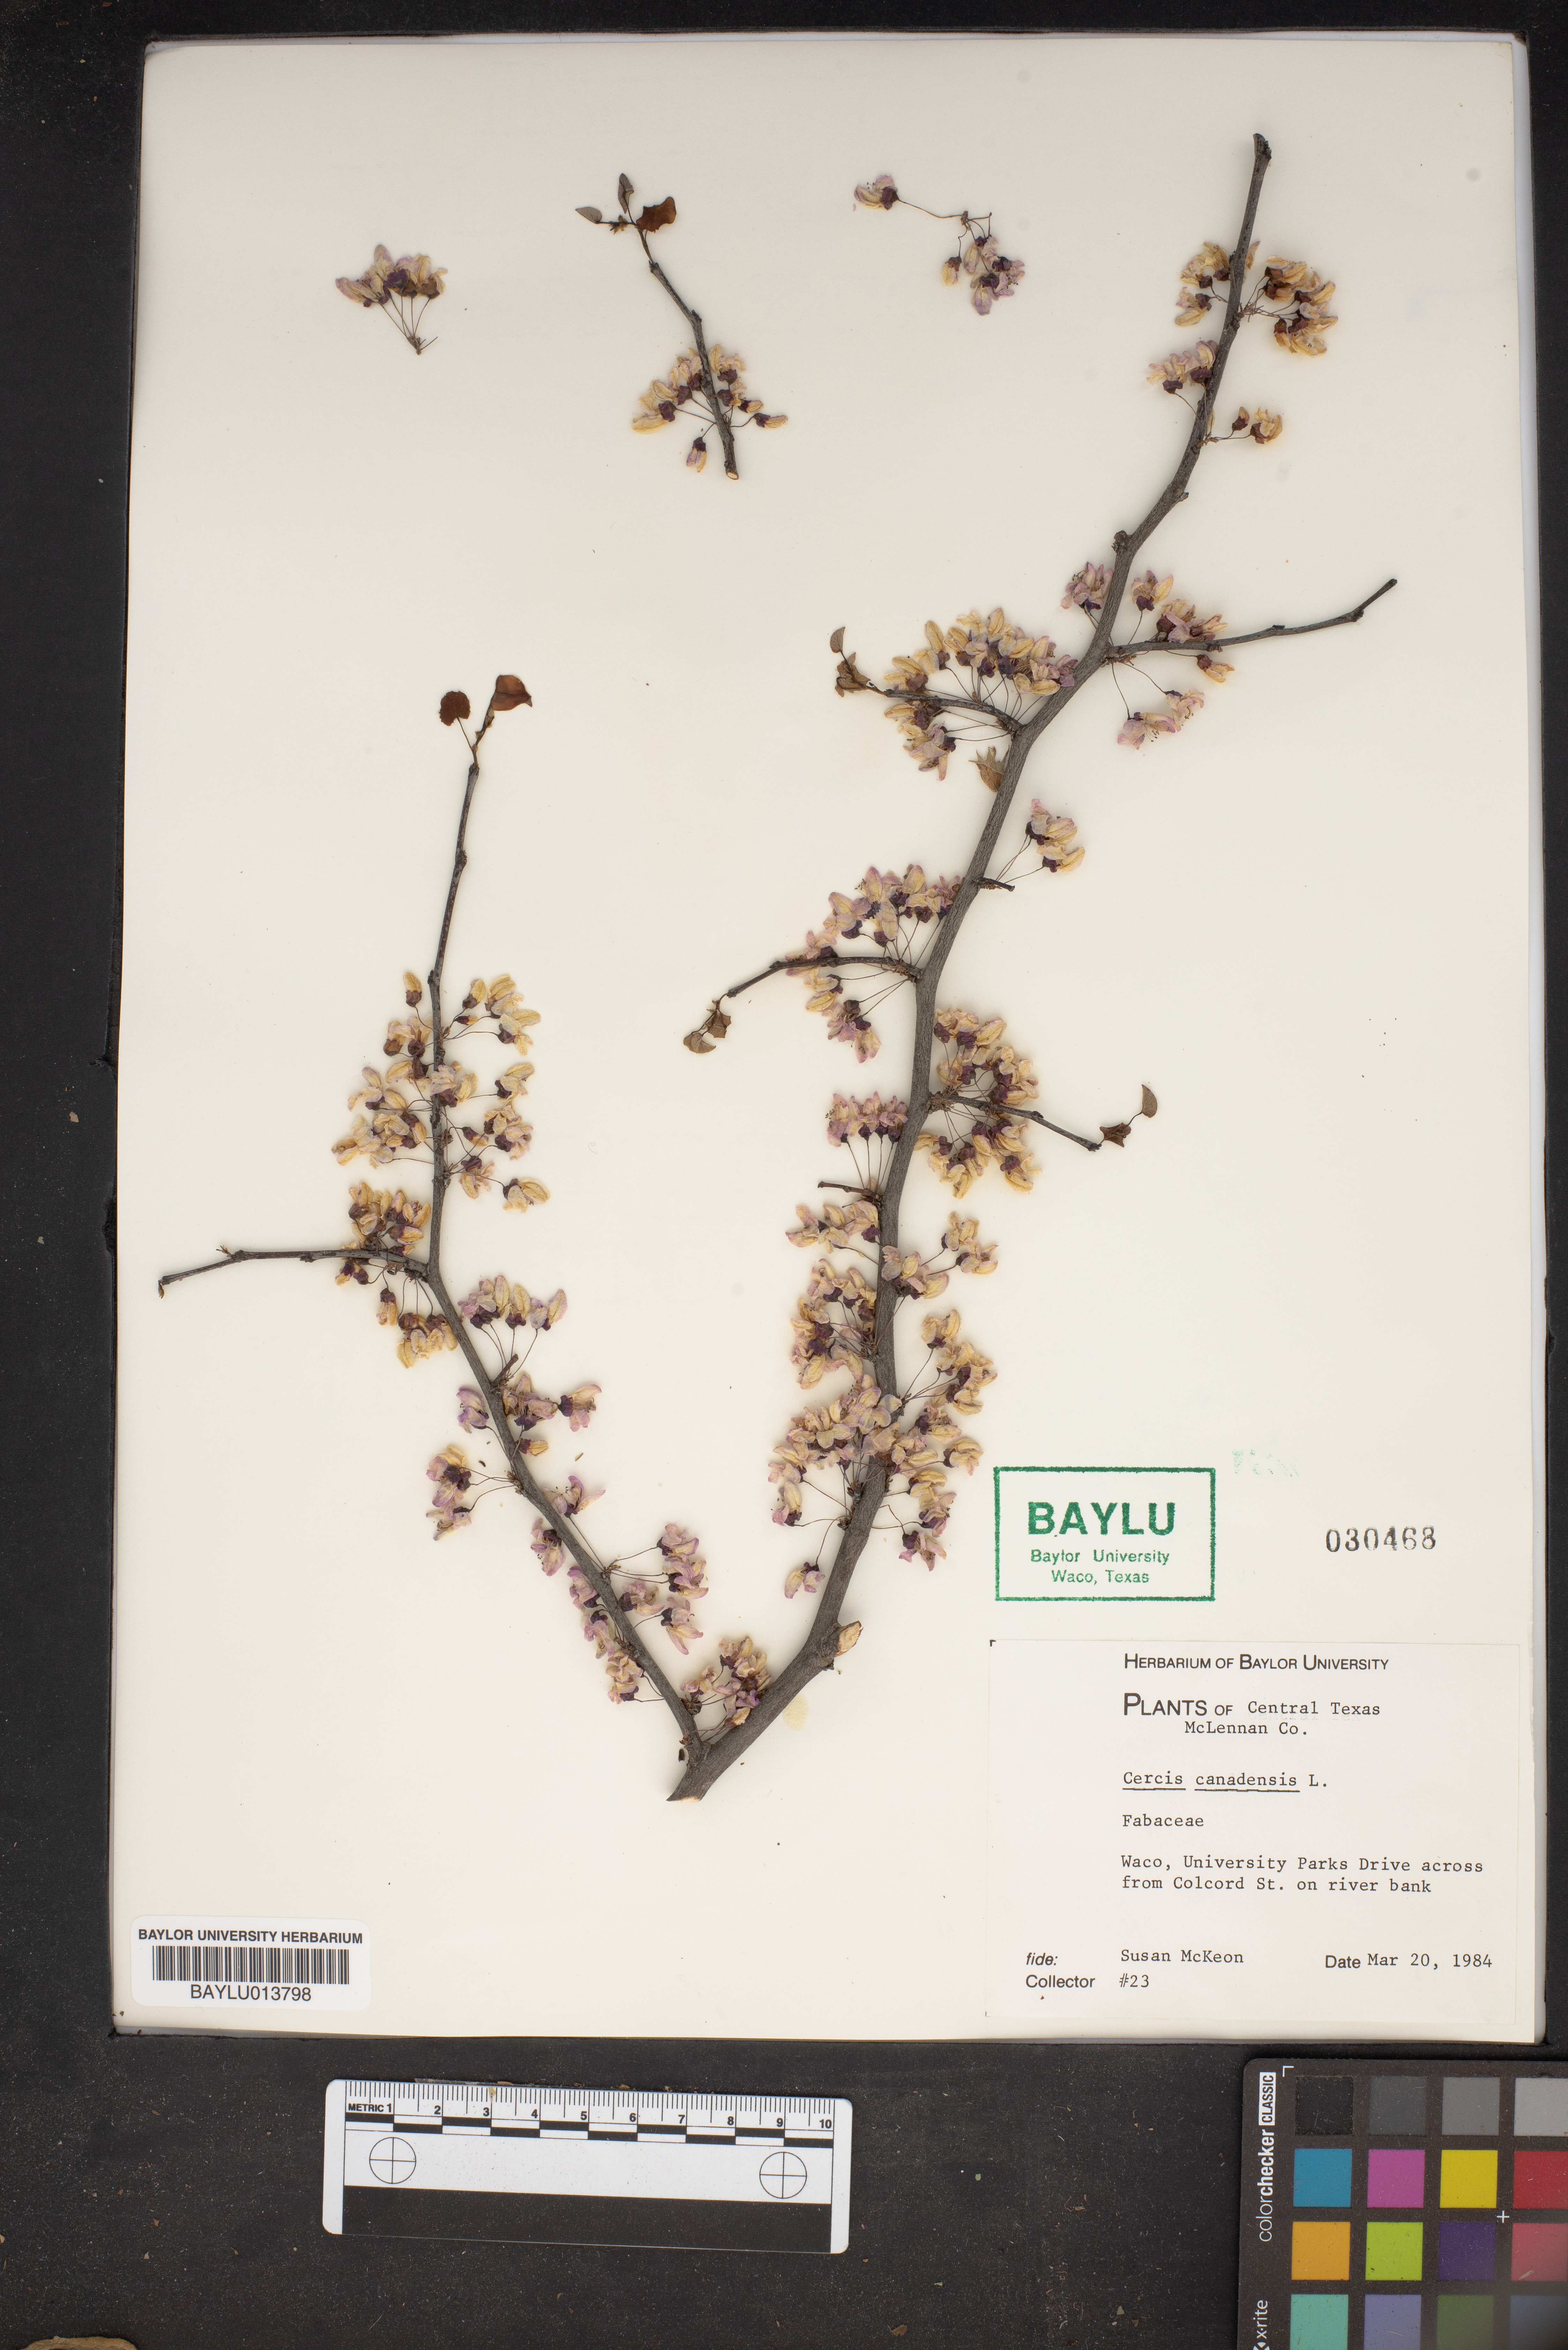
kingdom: Plantae
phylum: Tracheophyta
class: Magnoliopsida
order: Fabales
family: Fabaceae
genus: Cercis
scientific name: Cercis canadensis
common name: Eastern redbud
